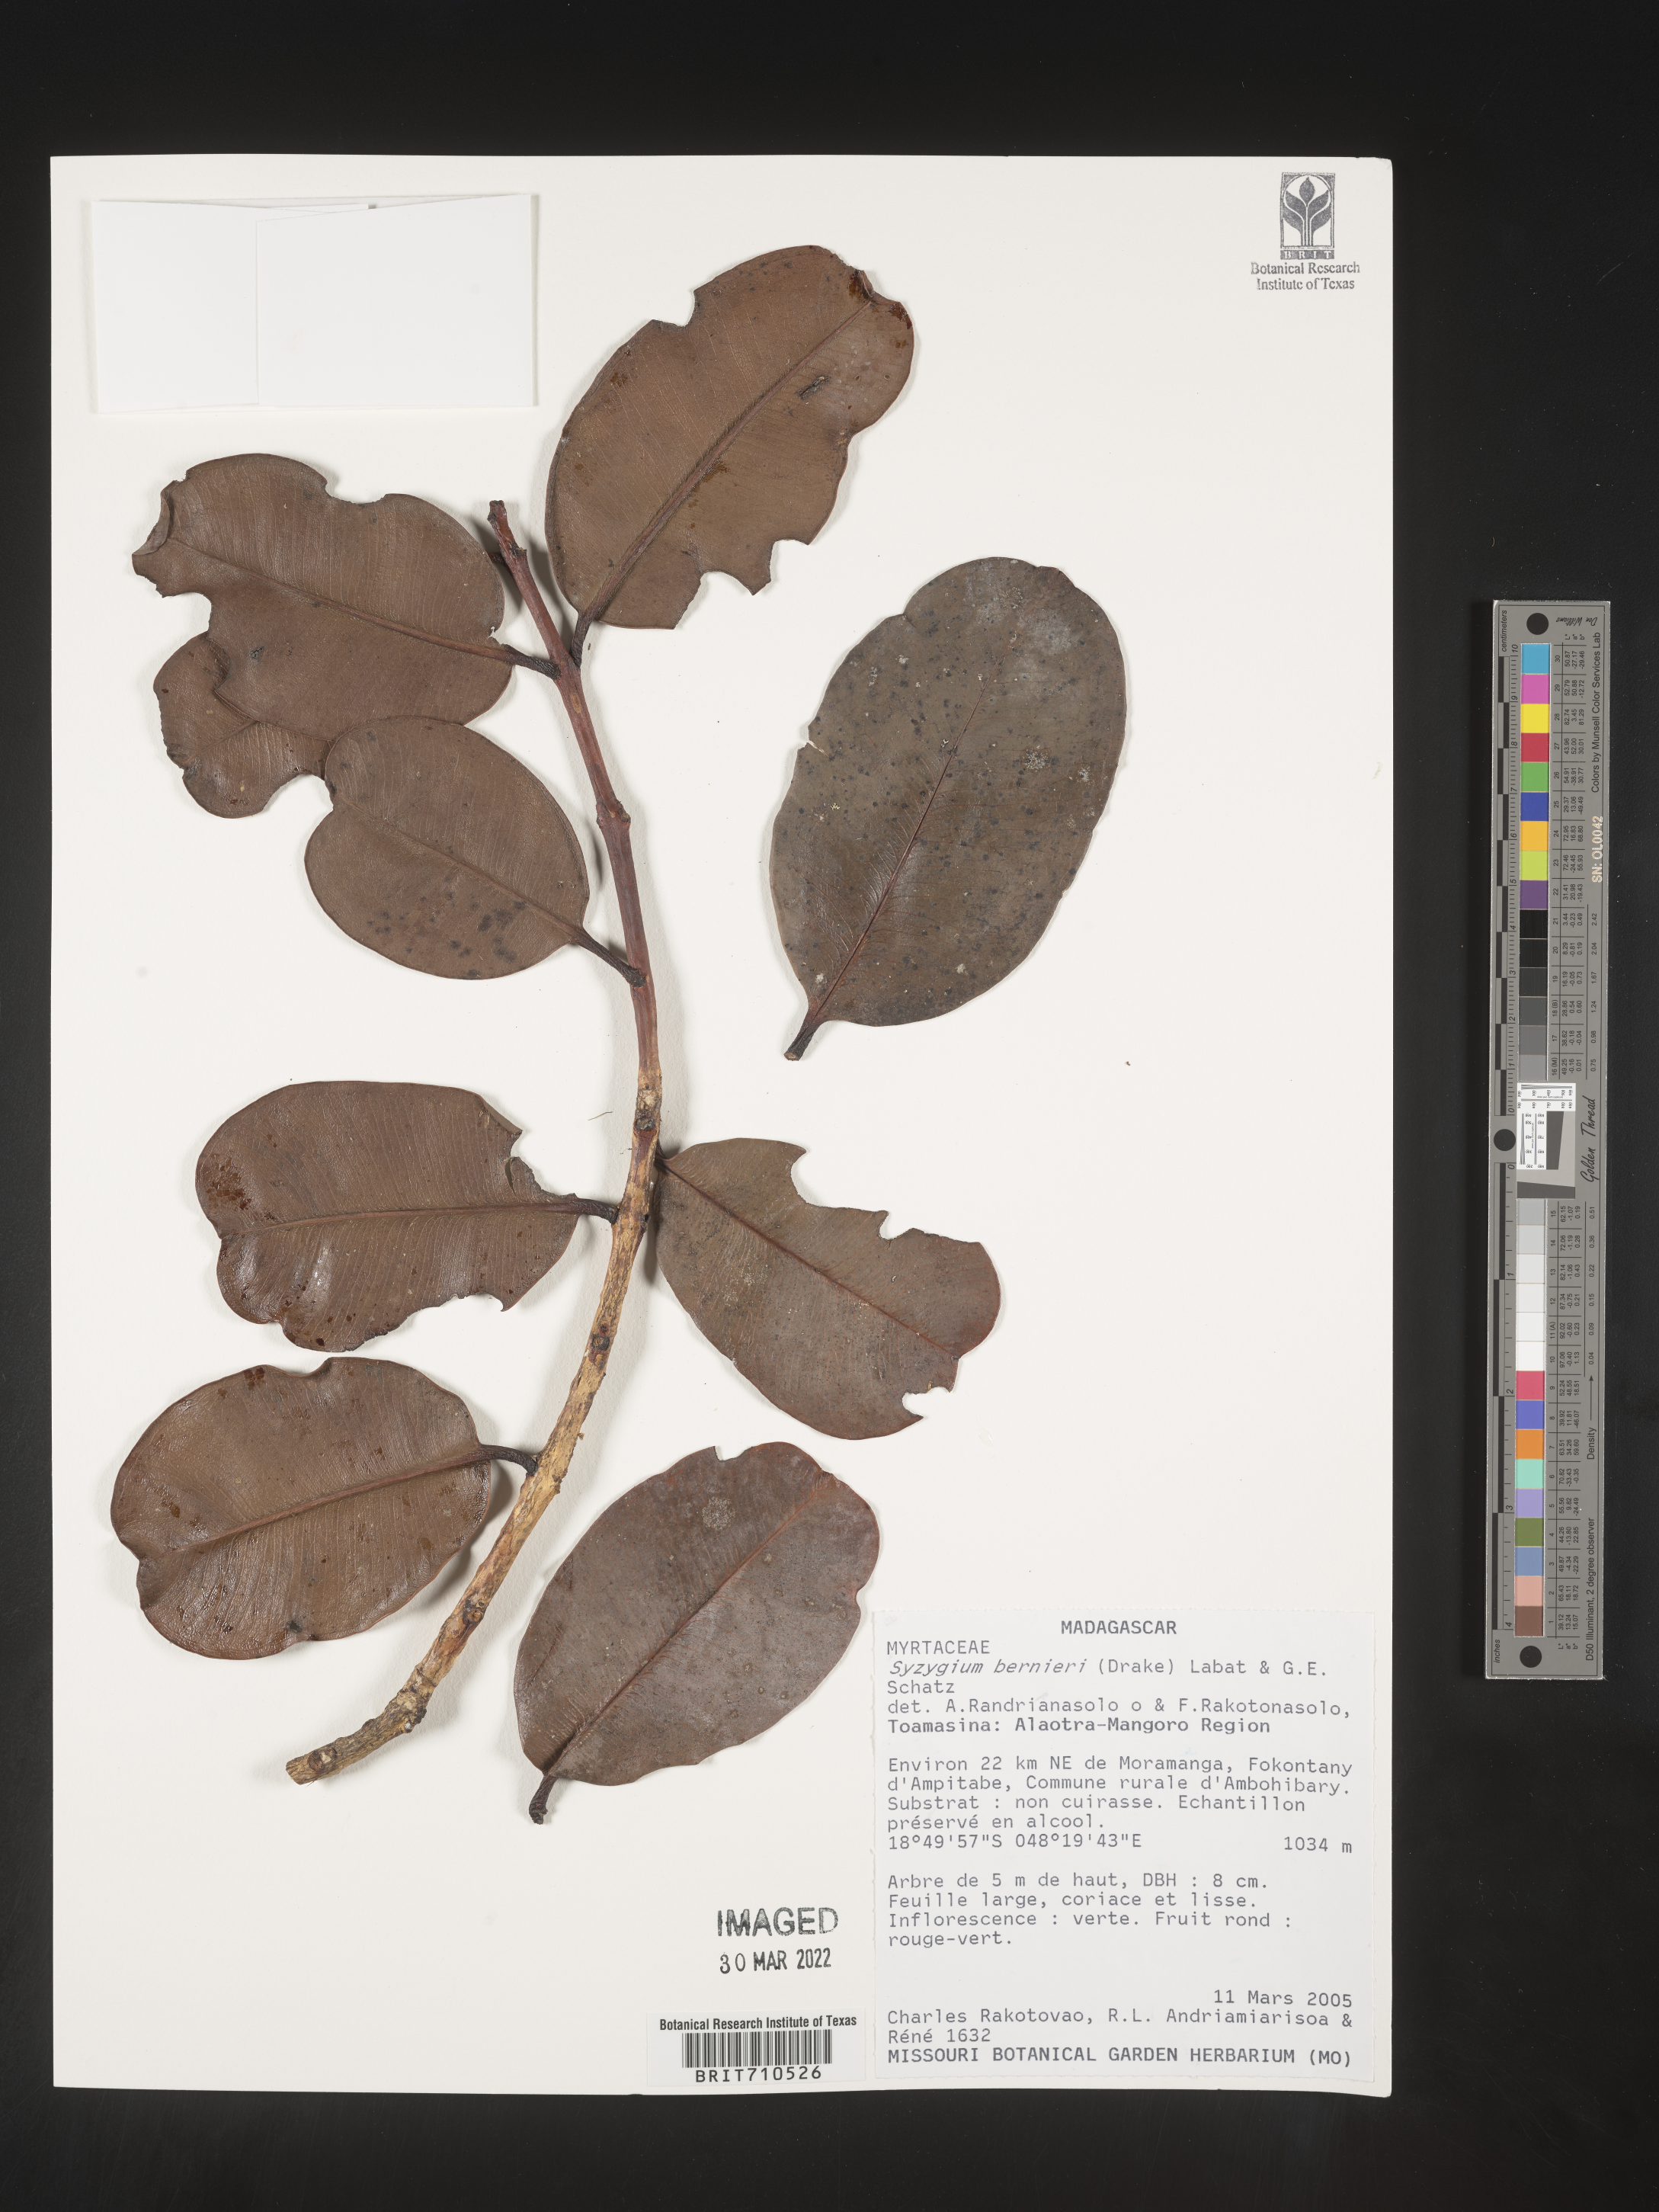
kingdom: Plantae
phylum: Tracheophyta
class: Magnoliopsida
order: Myrtales
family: Myrtaceae
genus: Syzygium
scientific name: Syzygium
